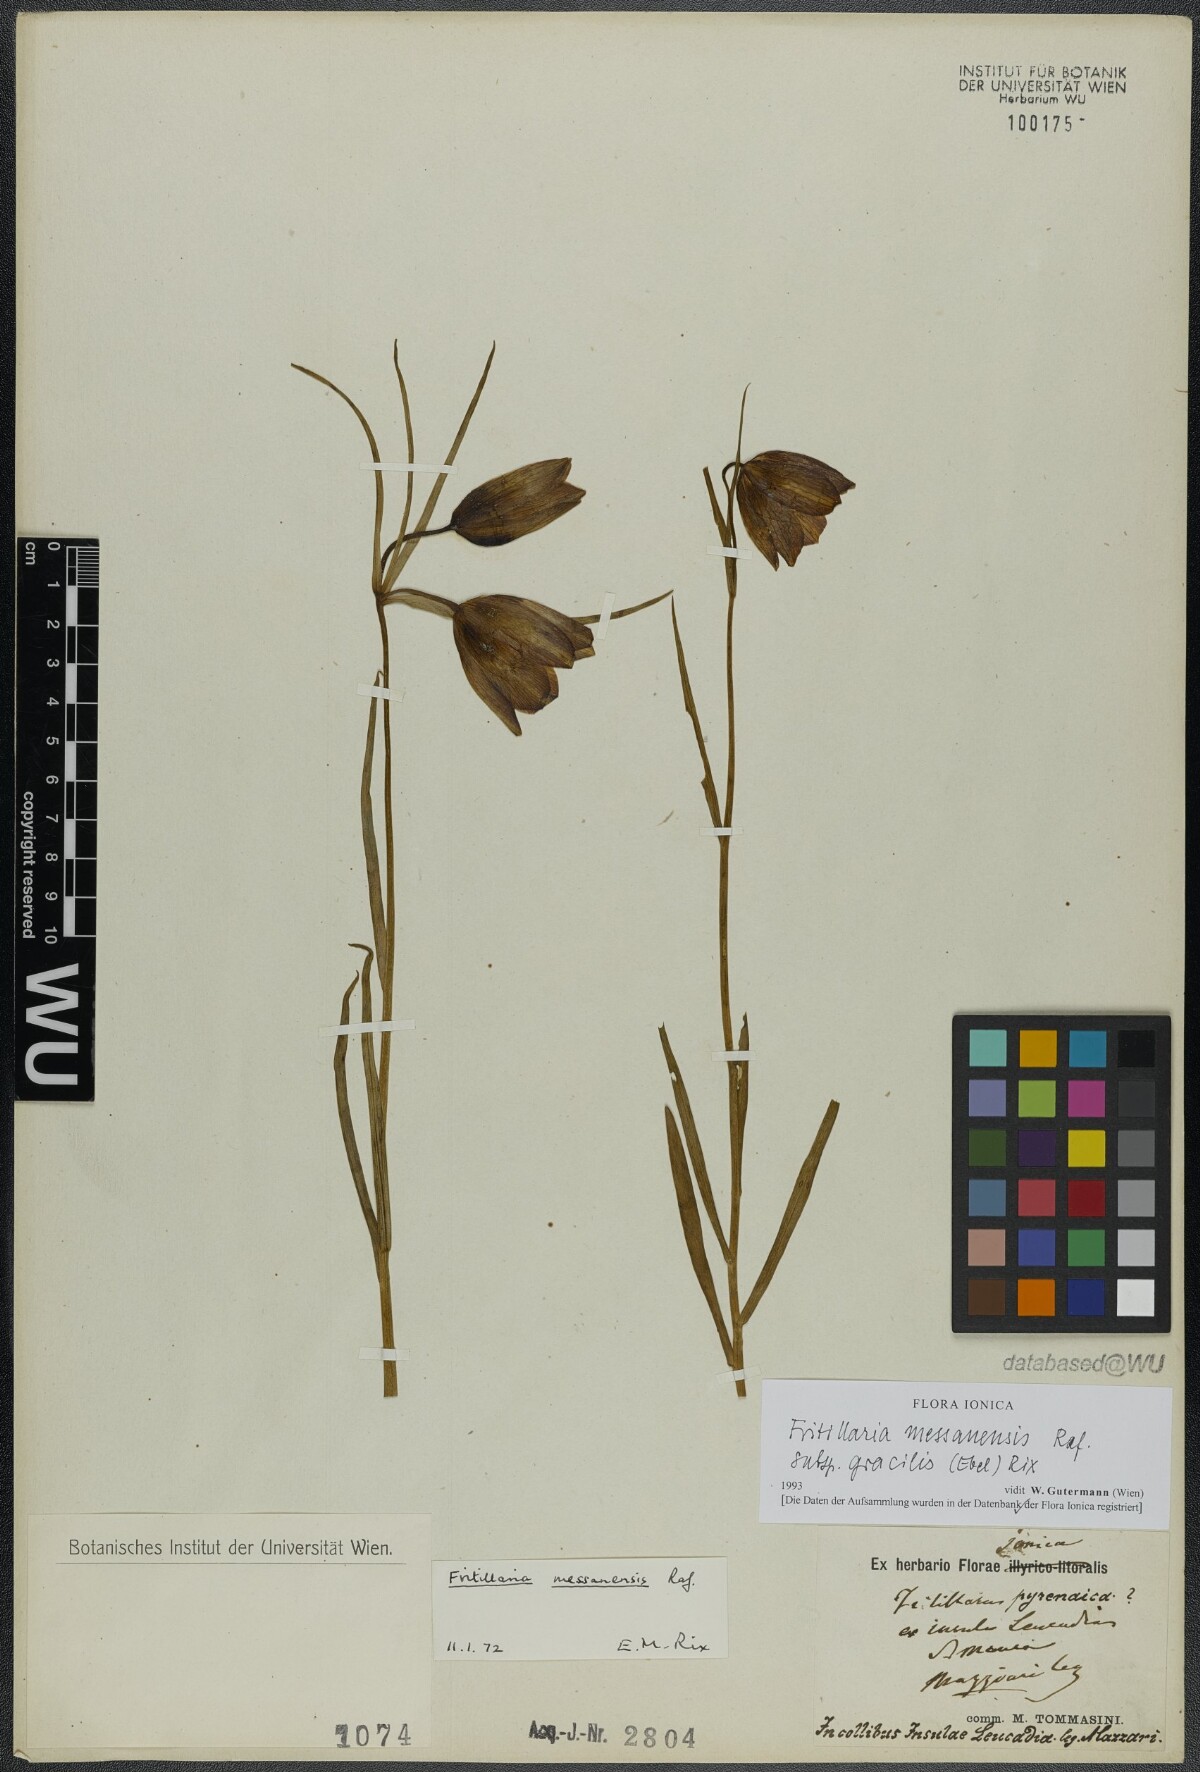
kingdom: Plantae
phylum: Tracheophyta
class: Liliopsida
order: Liliales
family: Liliaceae
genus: Fritillaria
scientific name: Fritillaria messanensis
